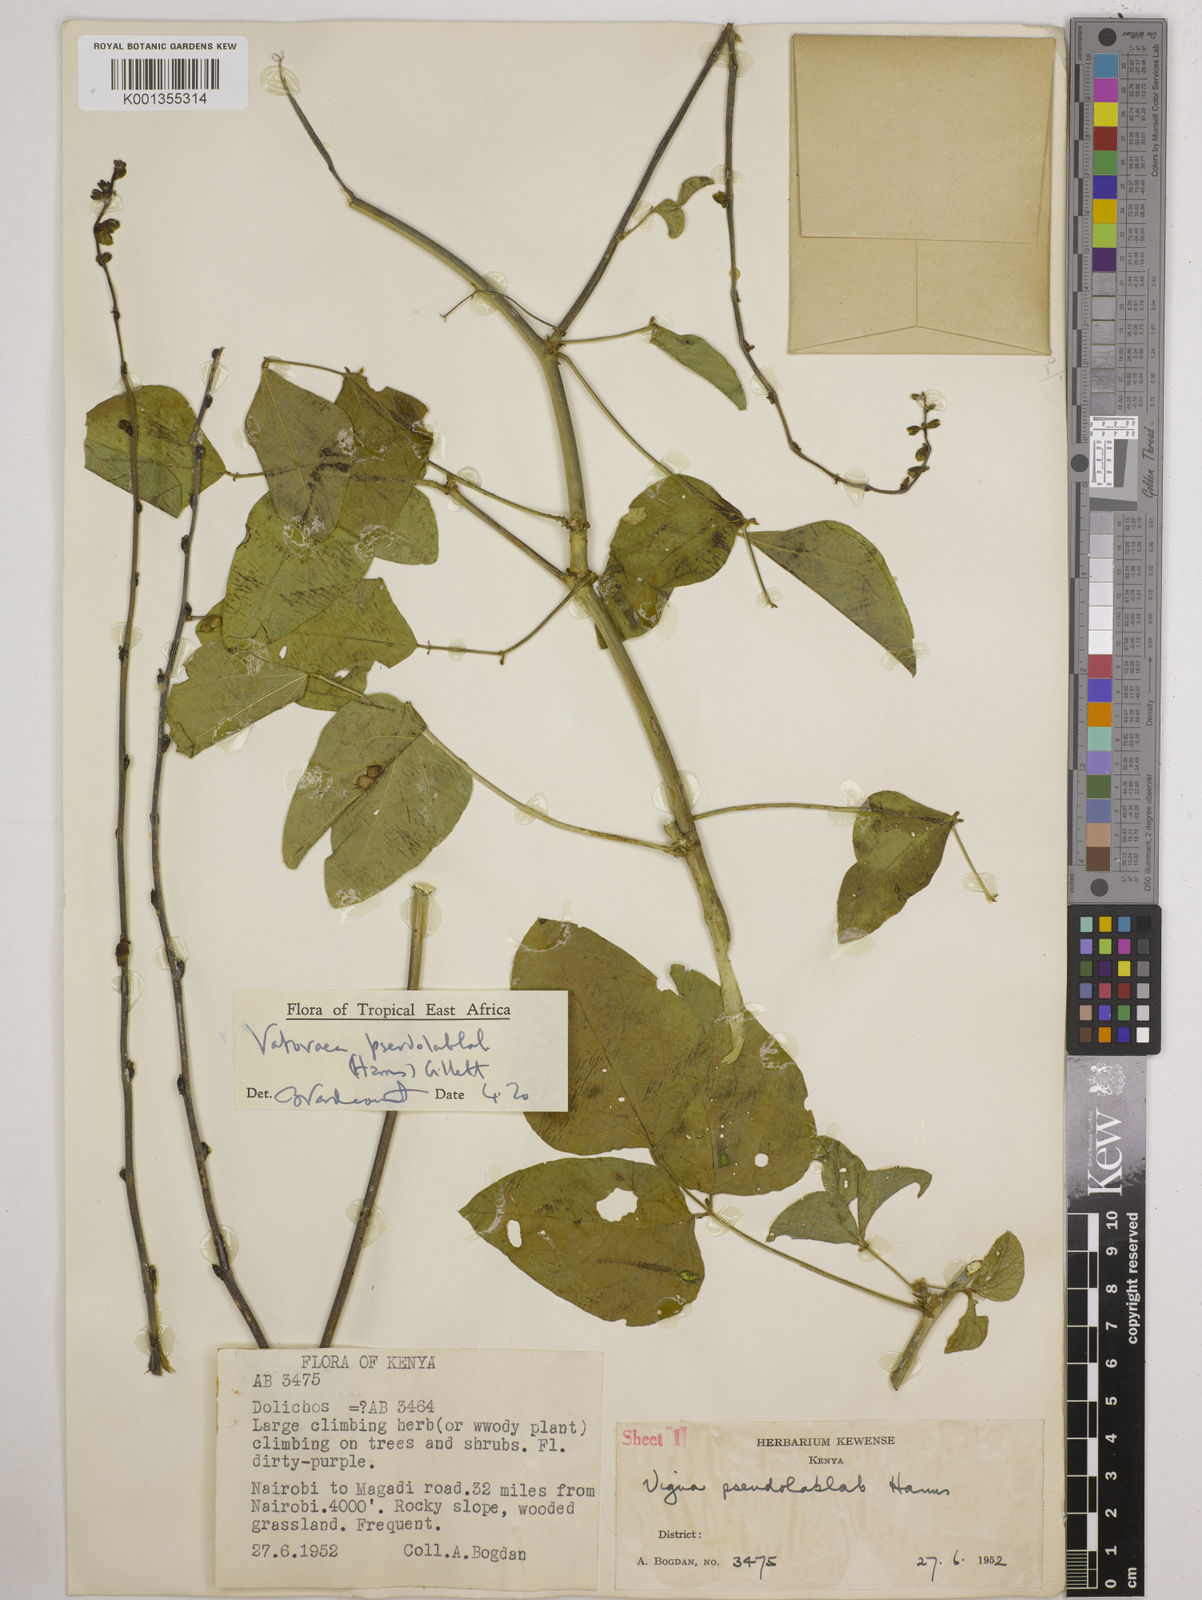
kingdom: Plantae
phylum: Tracheophyta
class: Magnoliopsida
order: Fabales
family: Fabaceae
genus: Vatovaea
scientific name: Vatovaea pseudolablab
